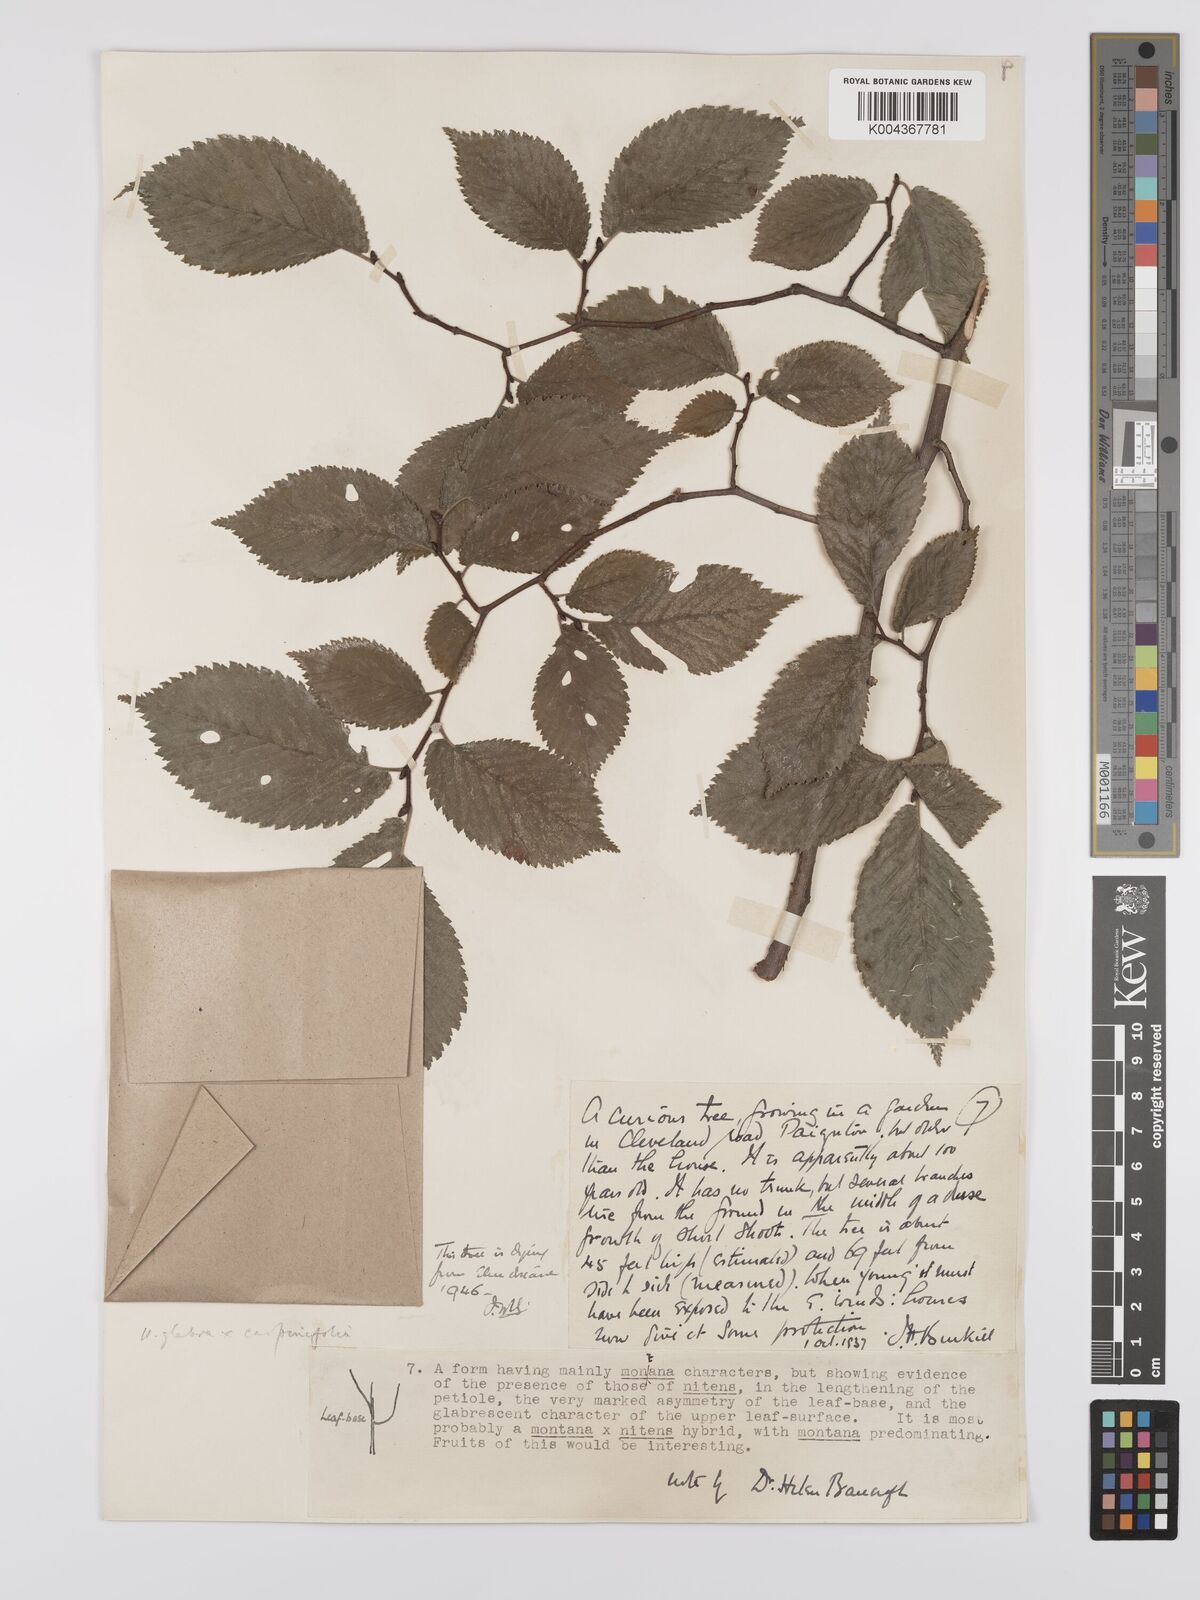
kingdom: Plantae
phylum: Tracheophyta
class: Magnoliopsida
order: Rosales
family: Ulmaceae
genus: Ulmus
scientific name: Ulmus
